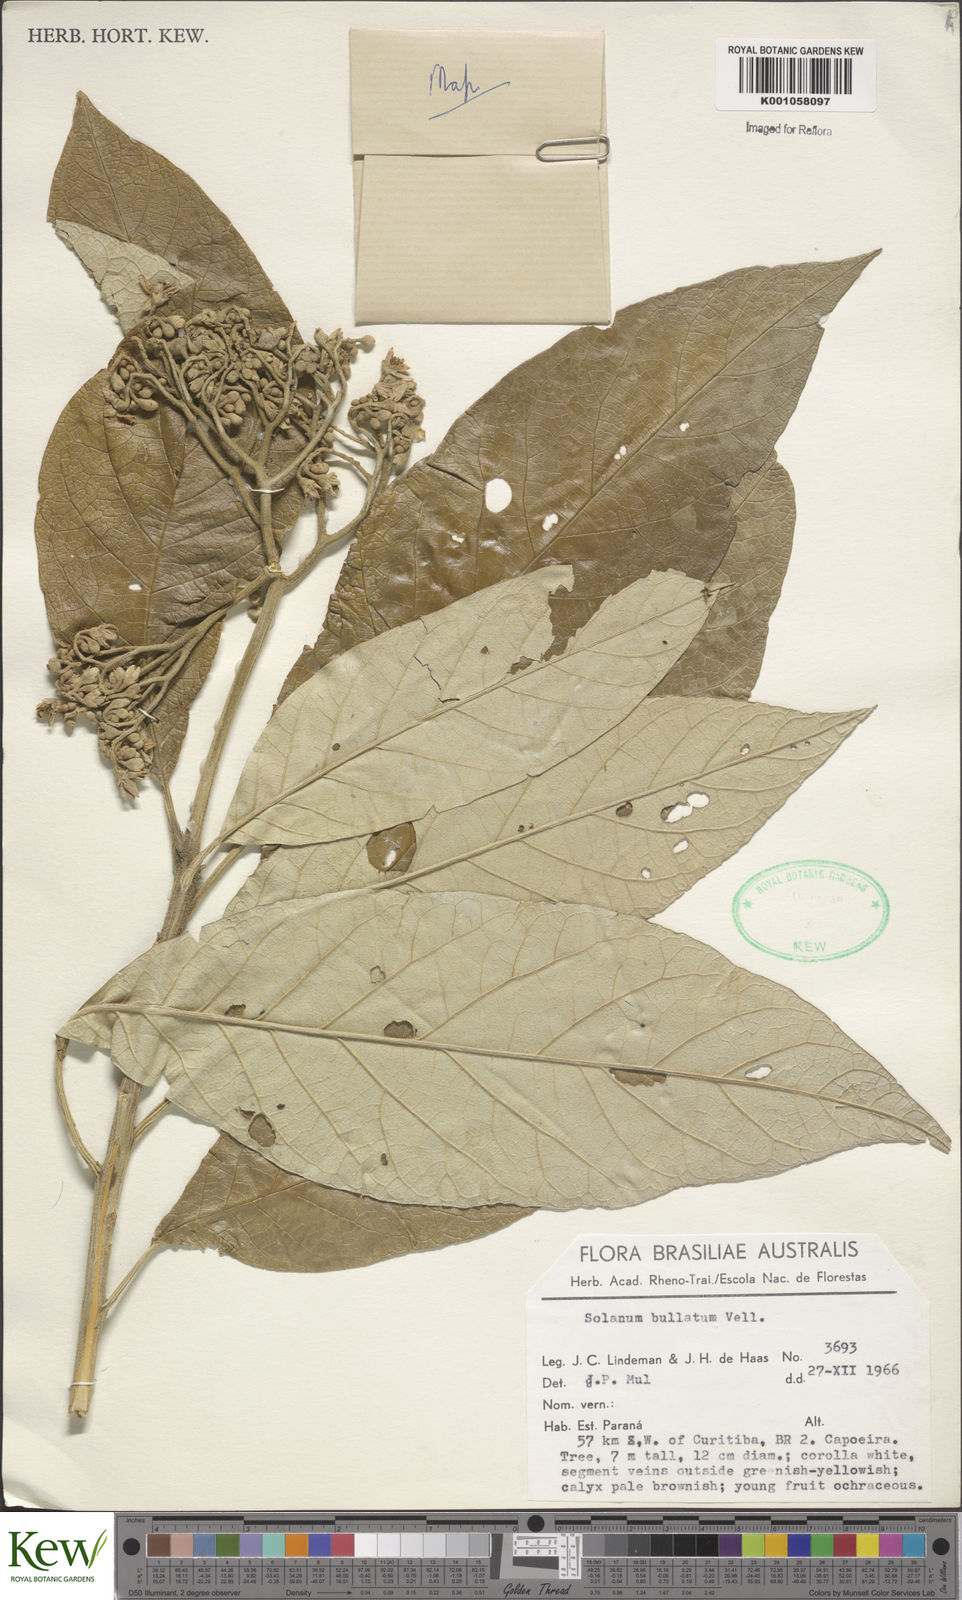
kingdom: Plantae
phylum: Tracheophyta
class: Magnoliopsida
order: Solanales
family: Solanaceae
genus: Solanum
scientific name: Solanum bullatum
